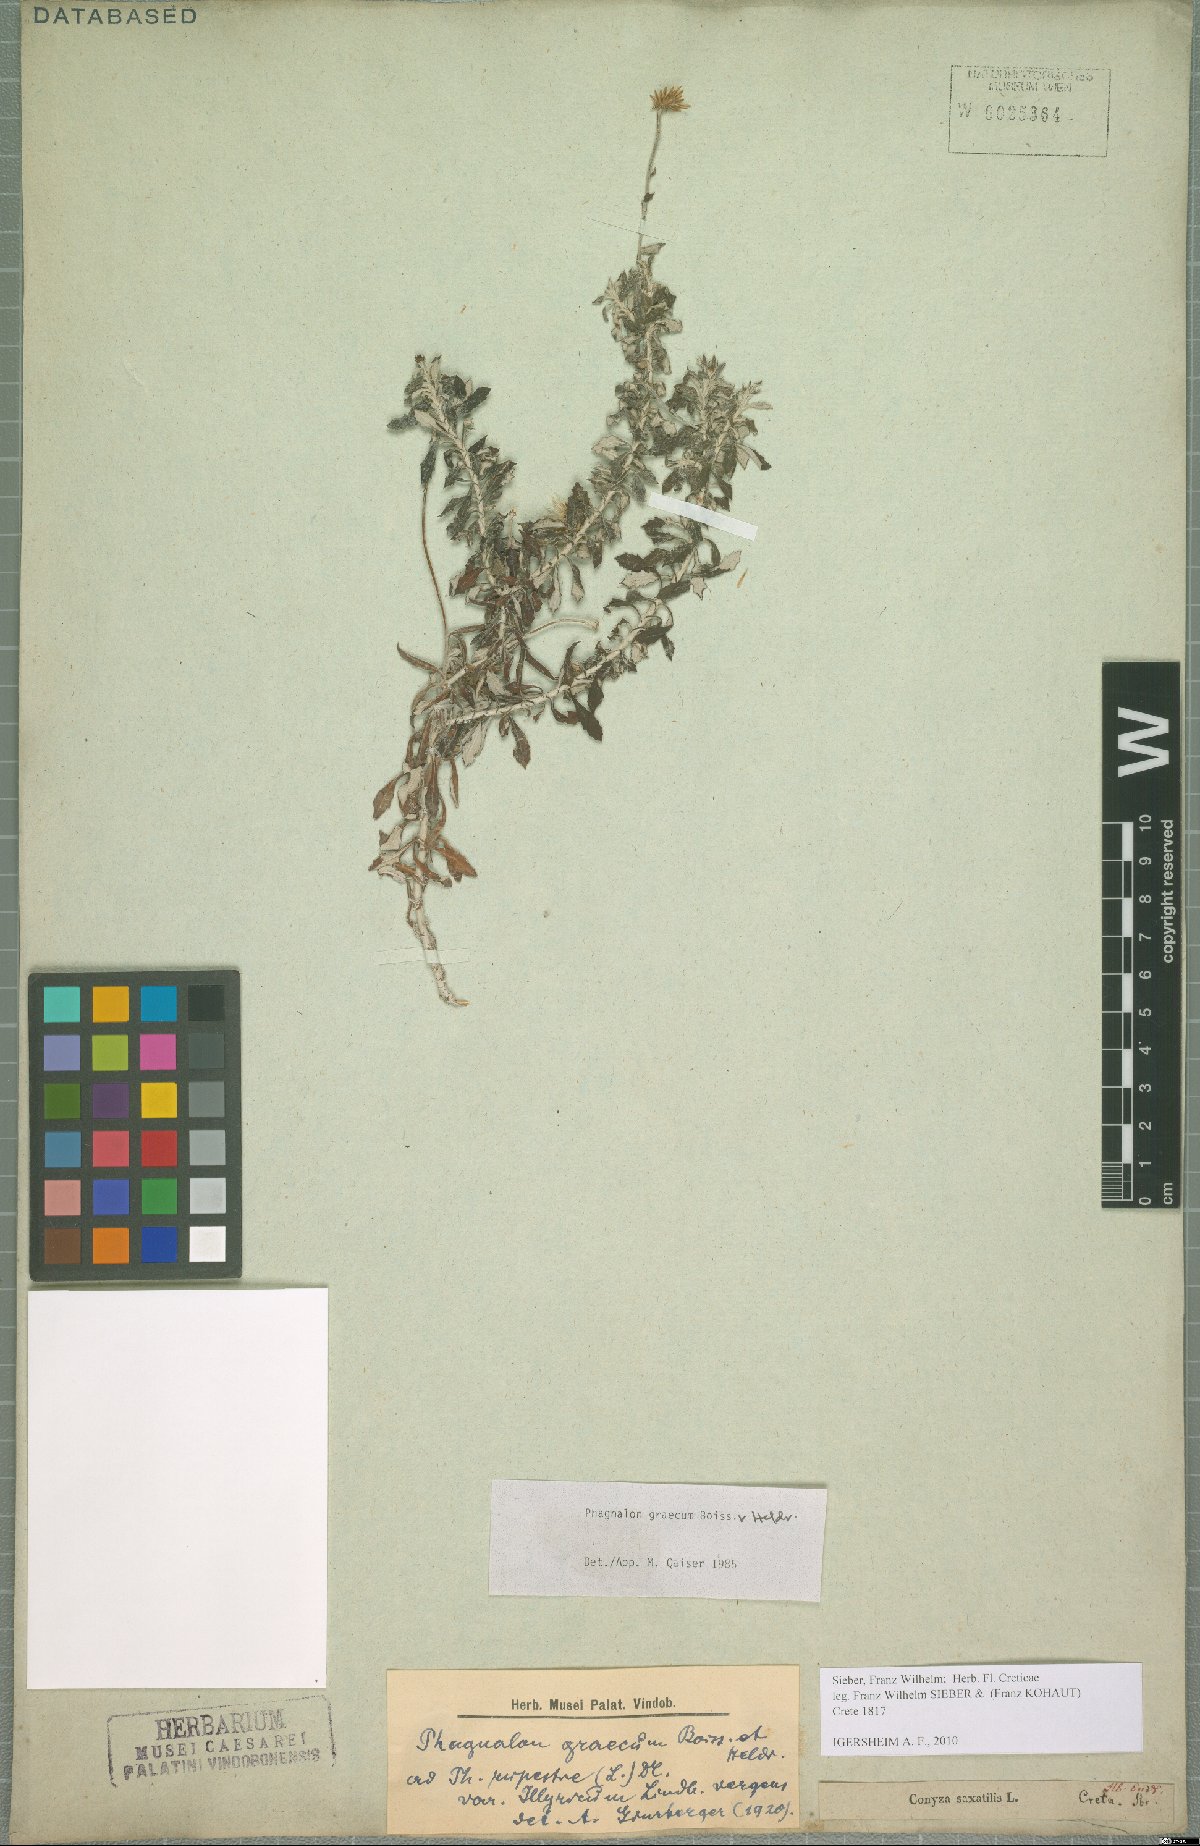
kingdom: Plantae
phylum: Tracheophyta
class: Magnoliopsida
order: Asterales
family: Asteraceae
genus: Phagnalon
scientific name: Phagnalon graecum
